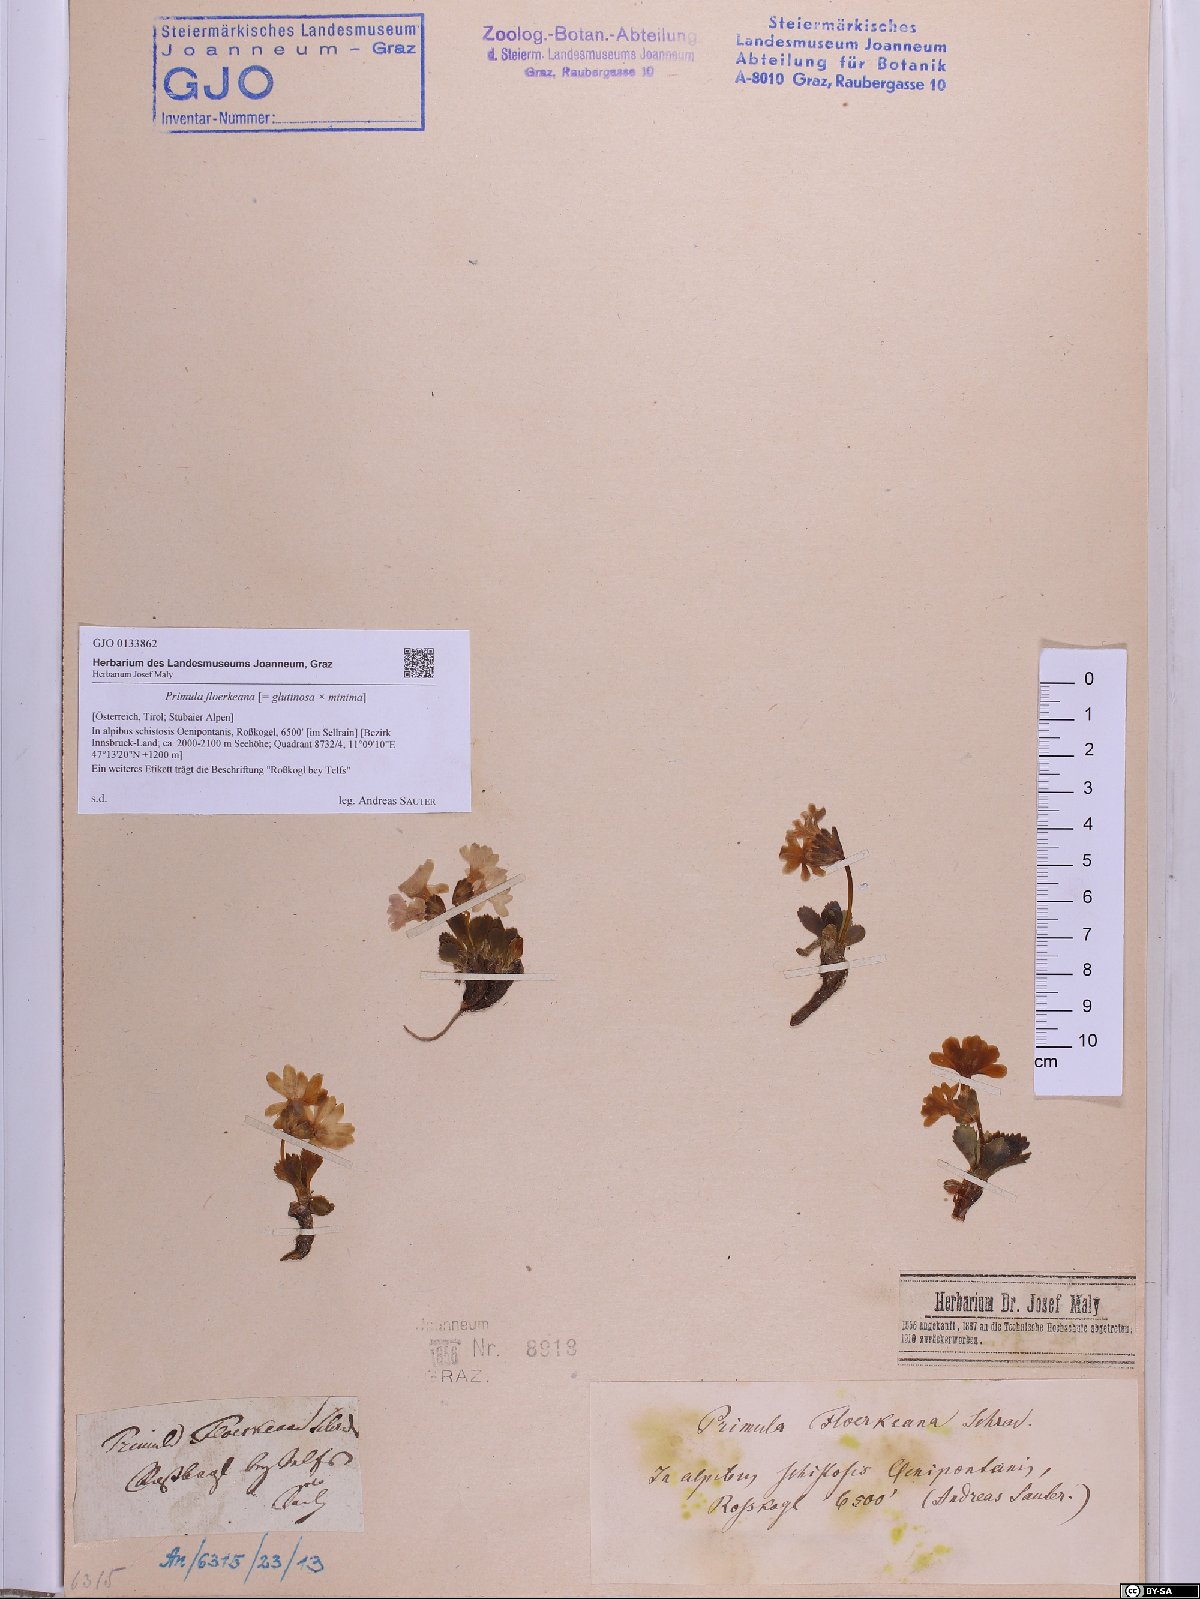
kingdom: Plantae
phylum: Tracheophyta
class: Magnoliopsida
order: Ericales
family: Primulaceae
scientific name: Primulaceae
